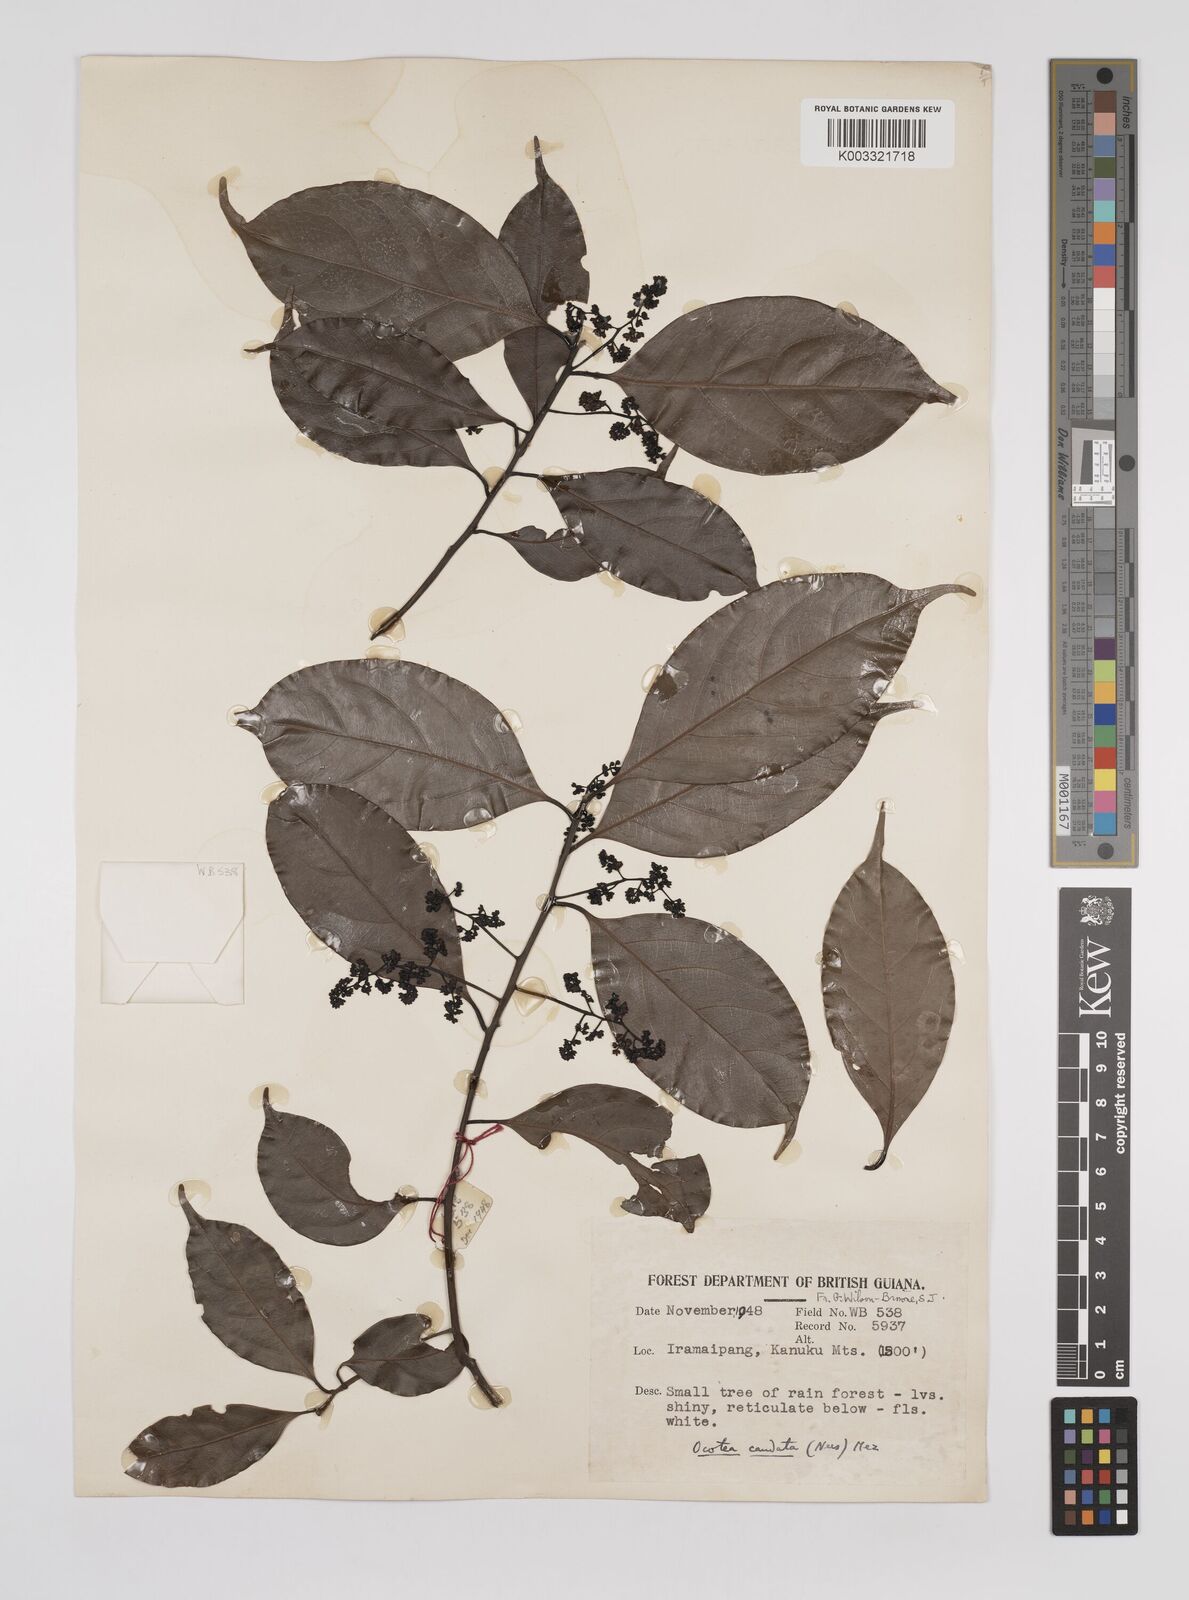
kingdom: Plantae
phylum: Tracheophyta
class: Magnoliopsida
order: Laurales
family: Lauraceae
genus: Ocotea
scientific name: Ocotea leptobotra
